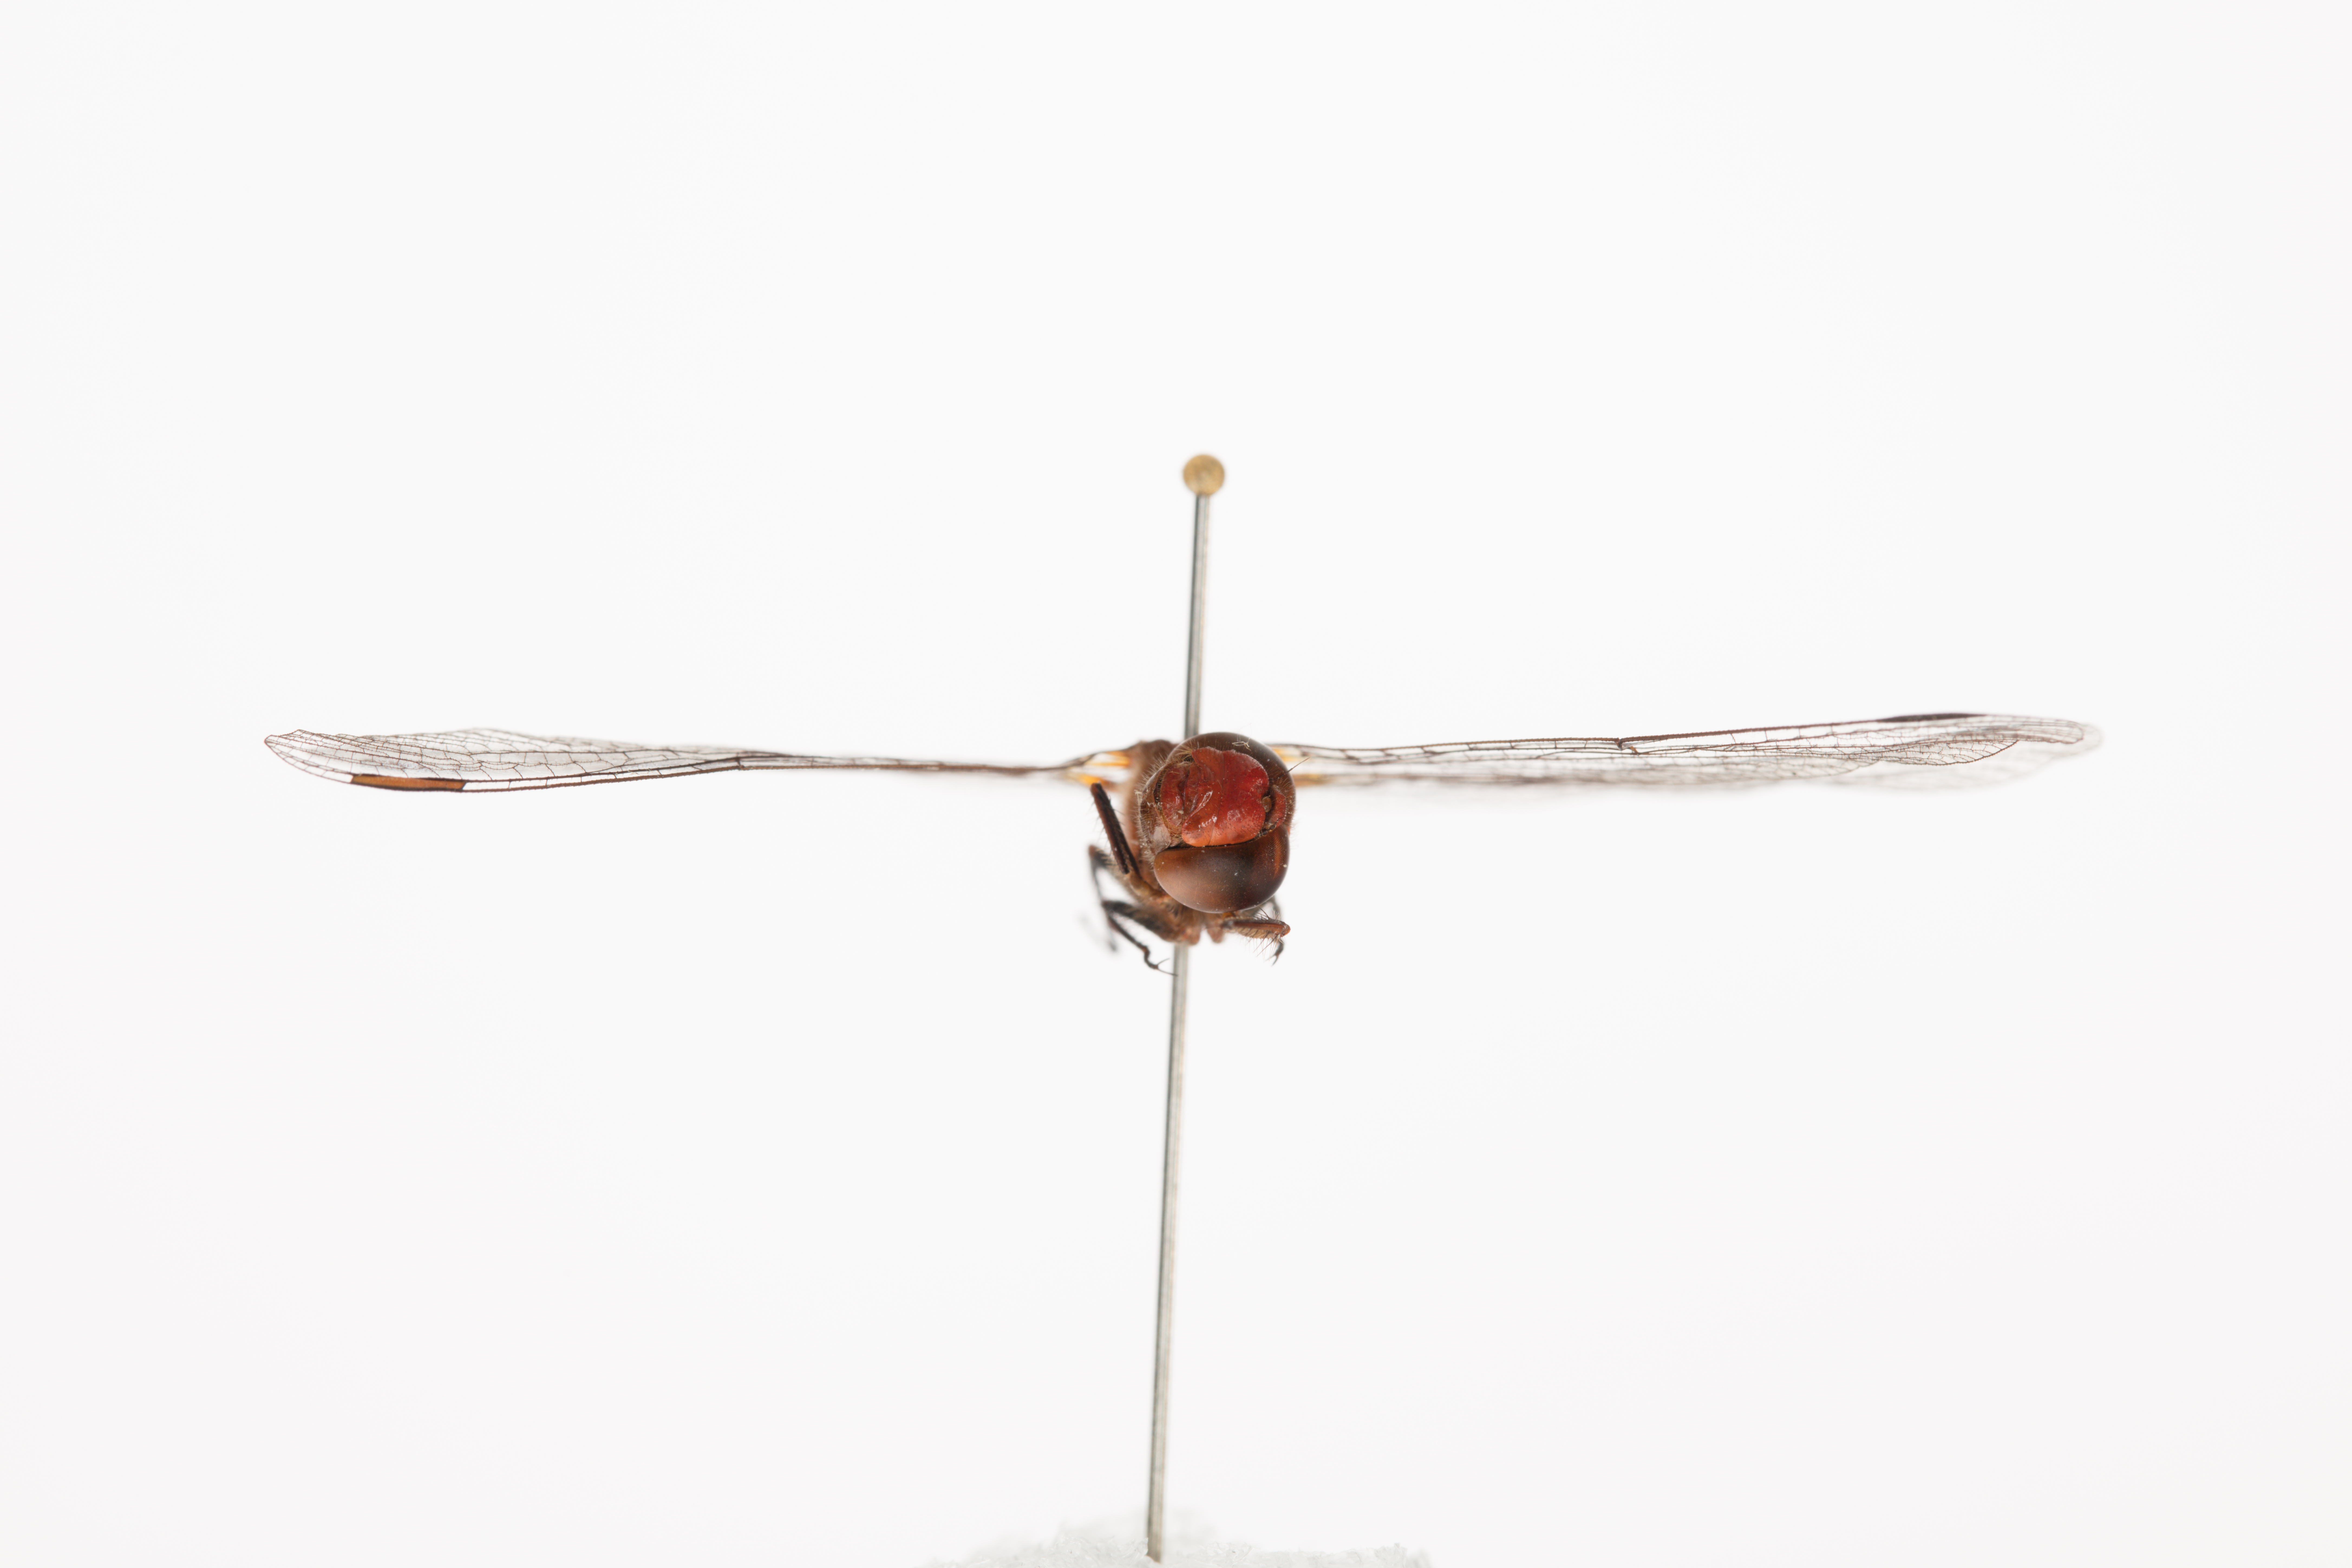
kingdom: Animalia
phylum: Arthropoda
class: Insecta
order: Odonata
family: Libellulidae
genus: Diplacodes
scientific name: Diplacodes bipunctata
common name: Red percher dragonfly
